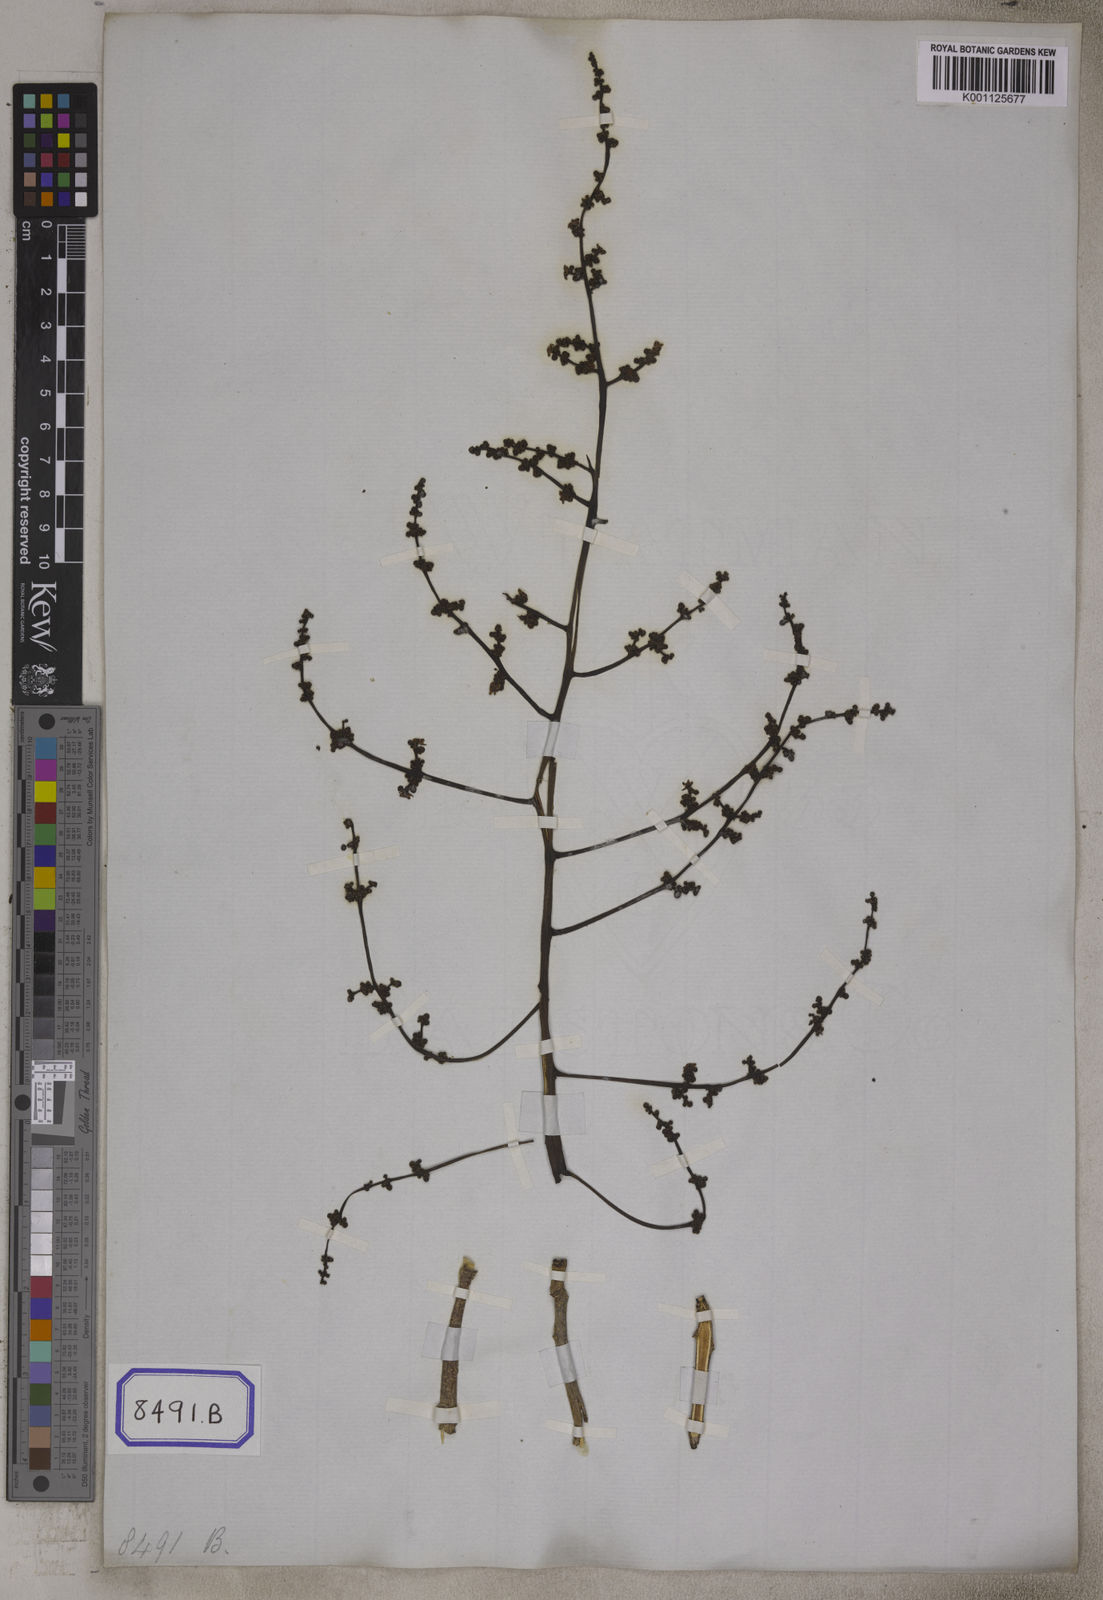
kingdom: Plantae
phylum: Tracheophyta
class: Magnoliopsida
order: Sapindales
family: Anacardiaceae
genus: Sorindeia
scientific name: Sorindeia madagascariensis
